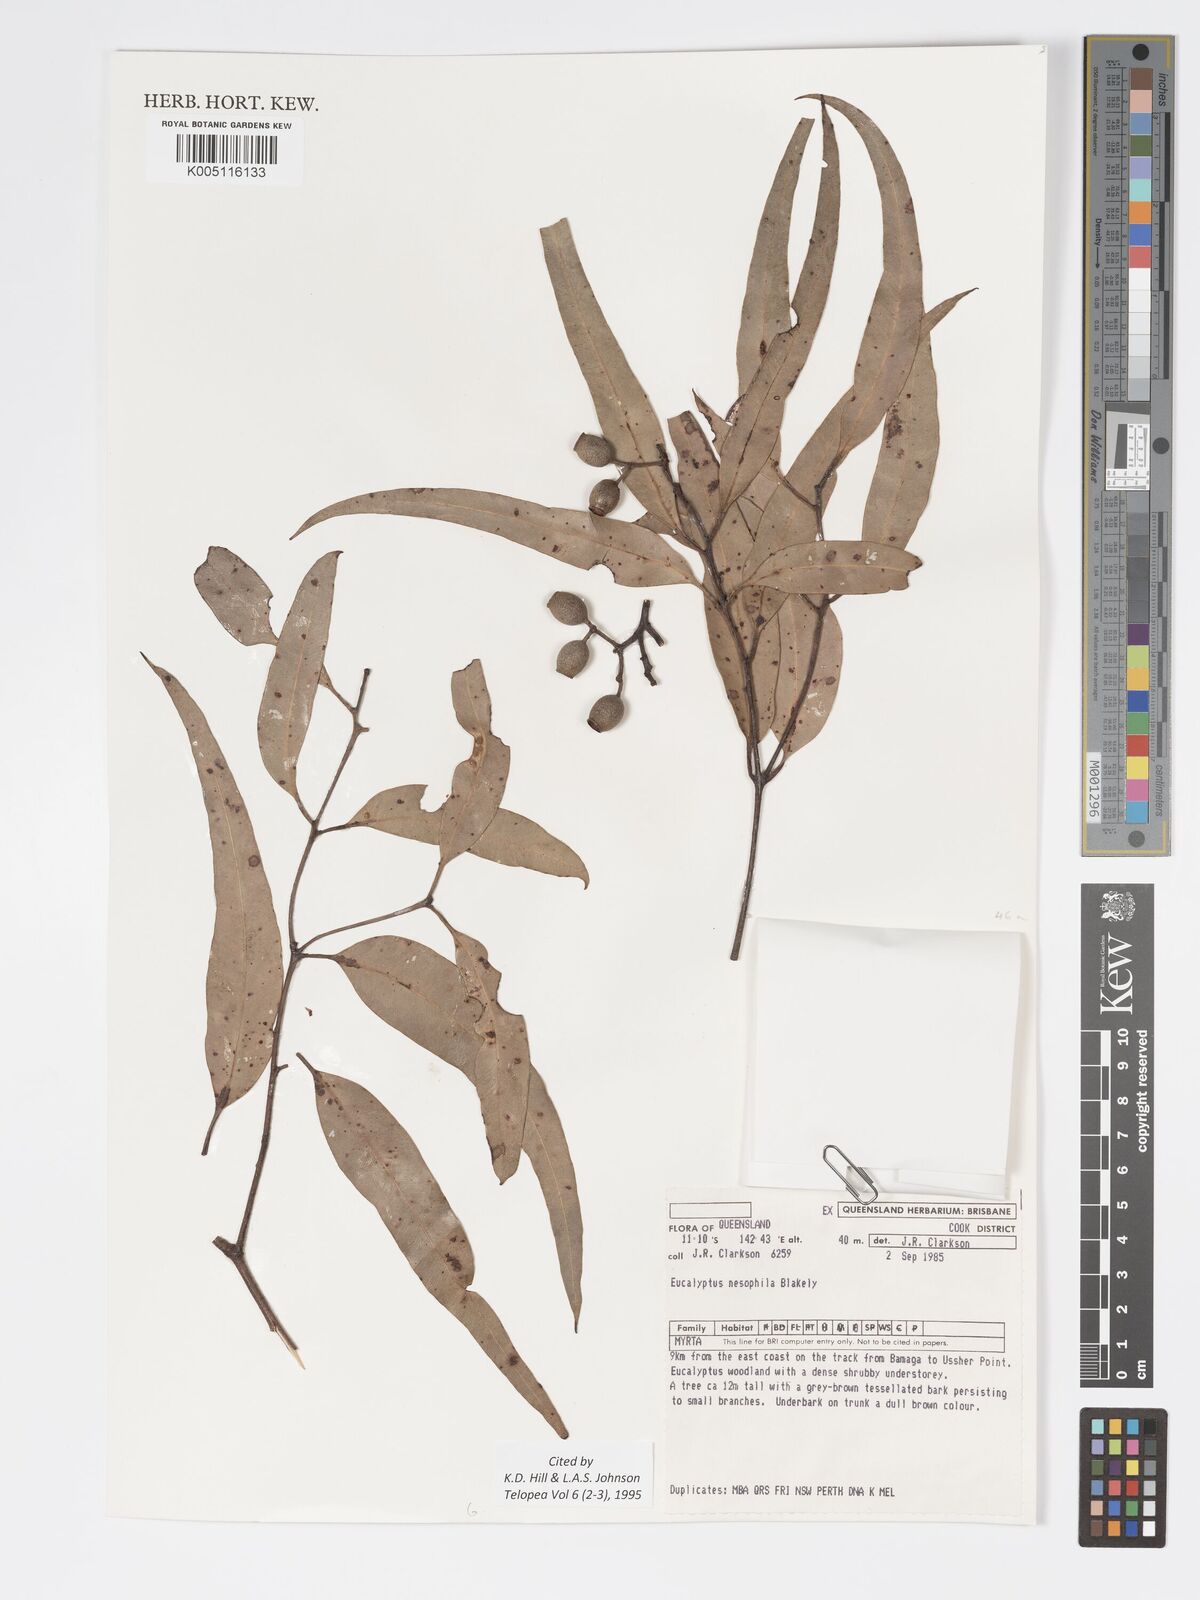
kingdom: Plantae
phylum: Tracheophyta
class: Magnoliopsida
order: Myrtales
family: Myrtaceae
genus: Corymbia
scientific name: Corymbia nesophila
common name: Melville-island-bloodwood
